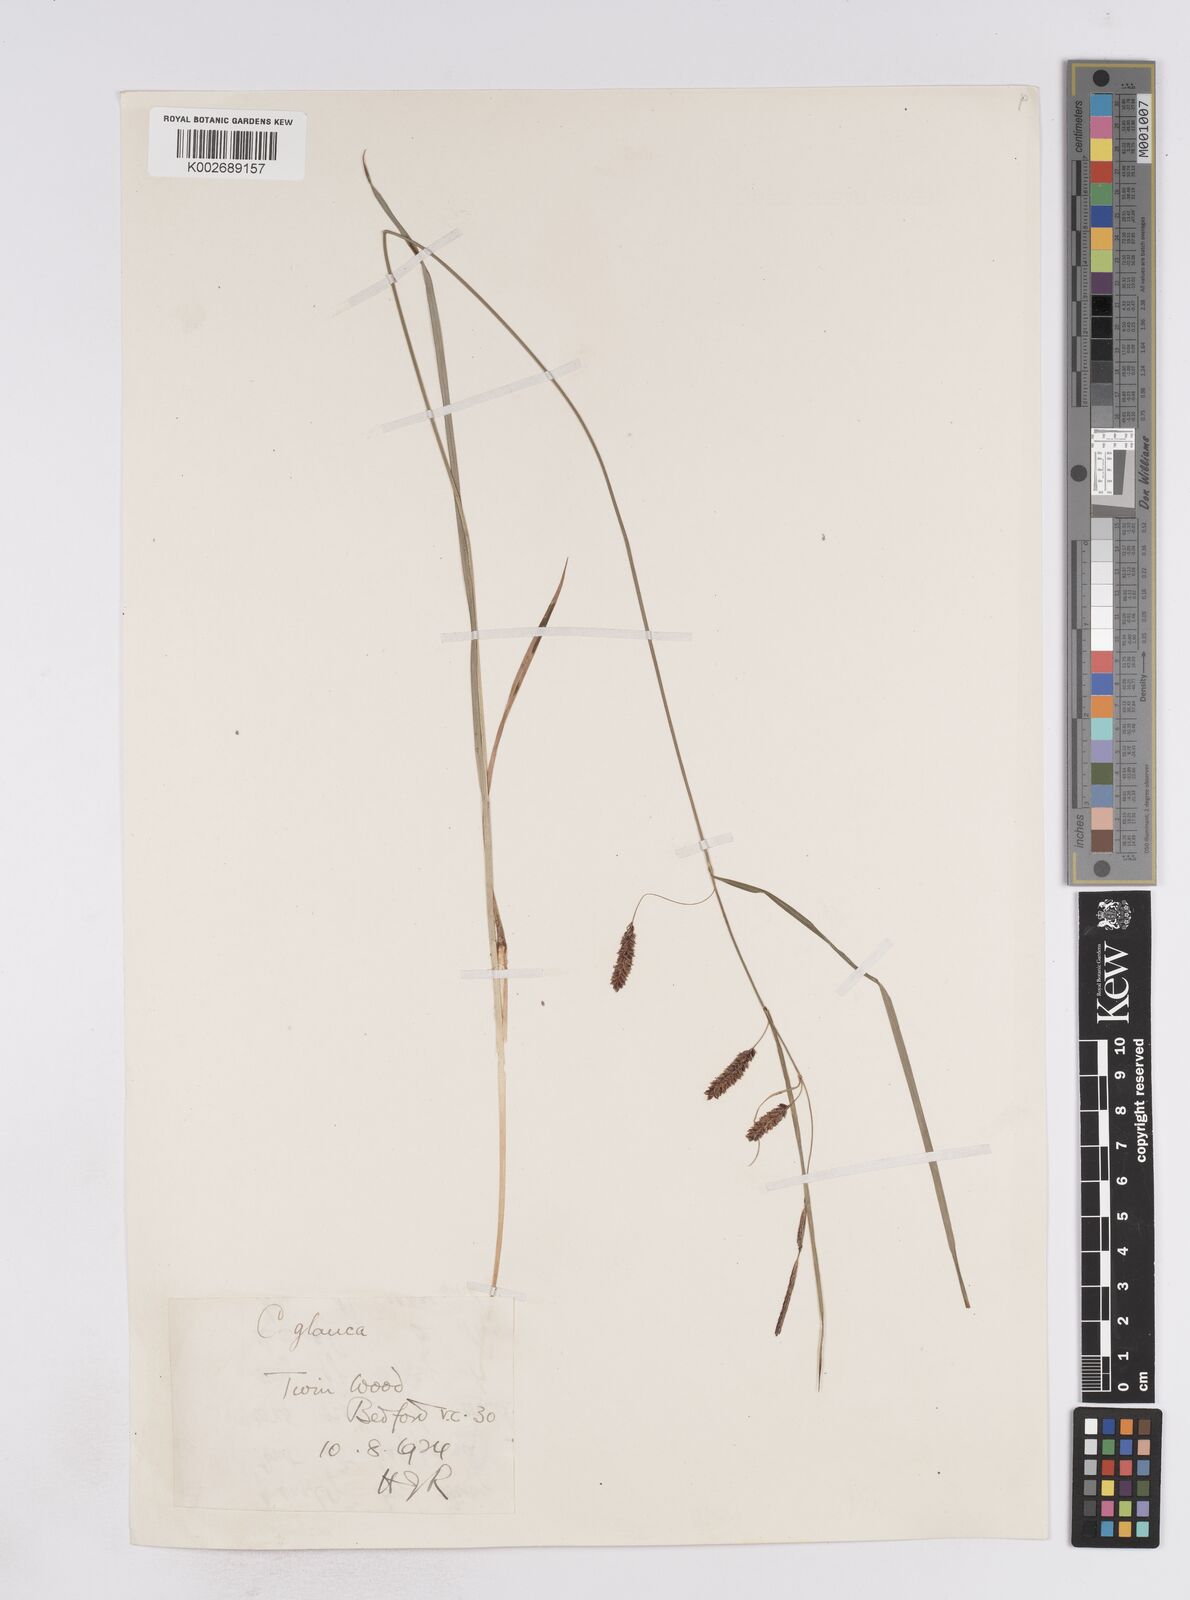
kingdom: Plantae
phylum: Tracheophyta
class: Liliopsida
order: Poales
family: Cyperaceae
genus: Carex
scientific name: Carex flacca
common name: Glaucous sedge
